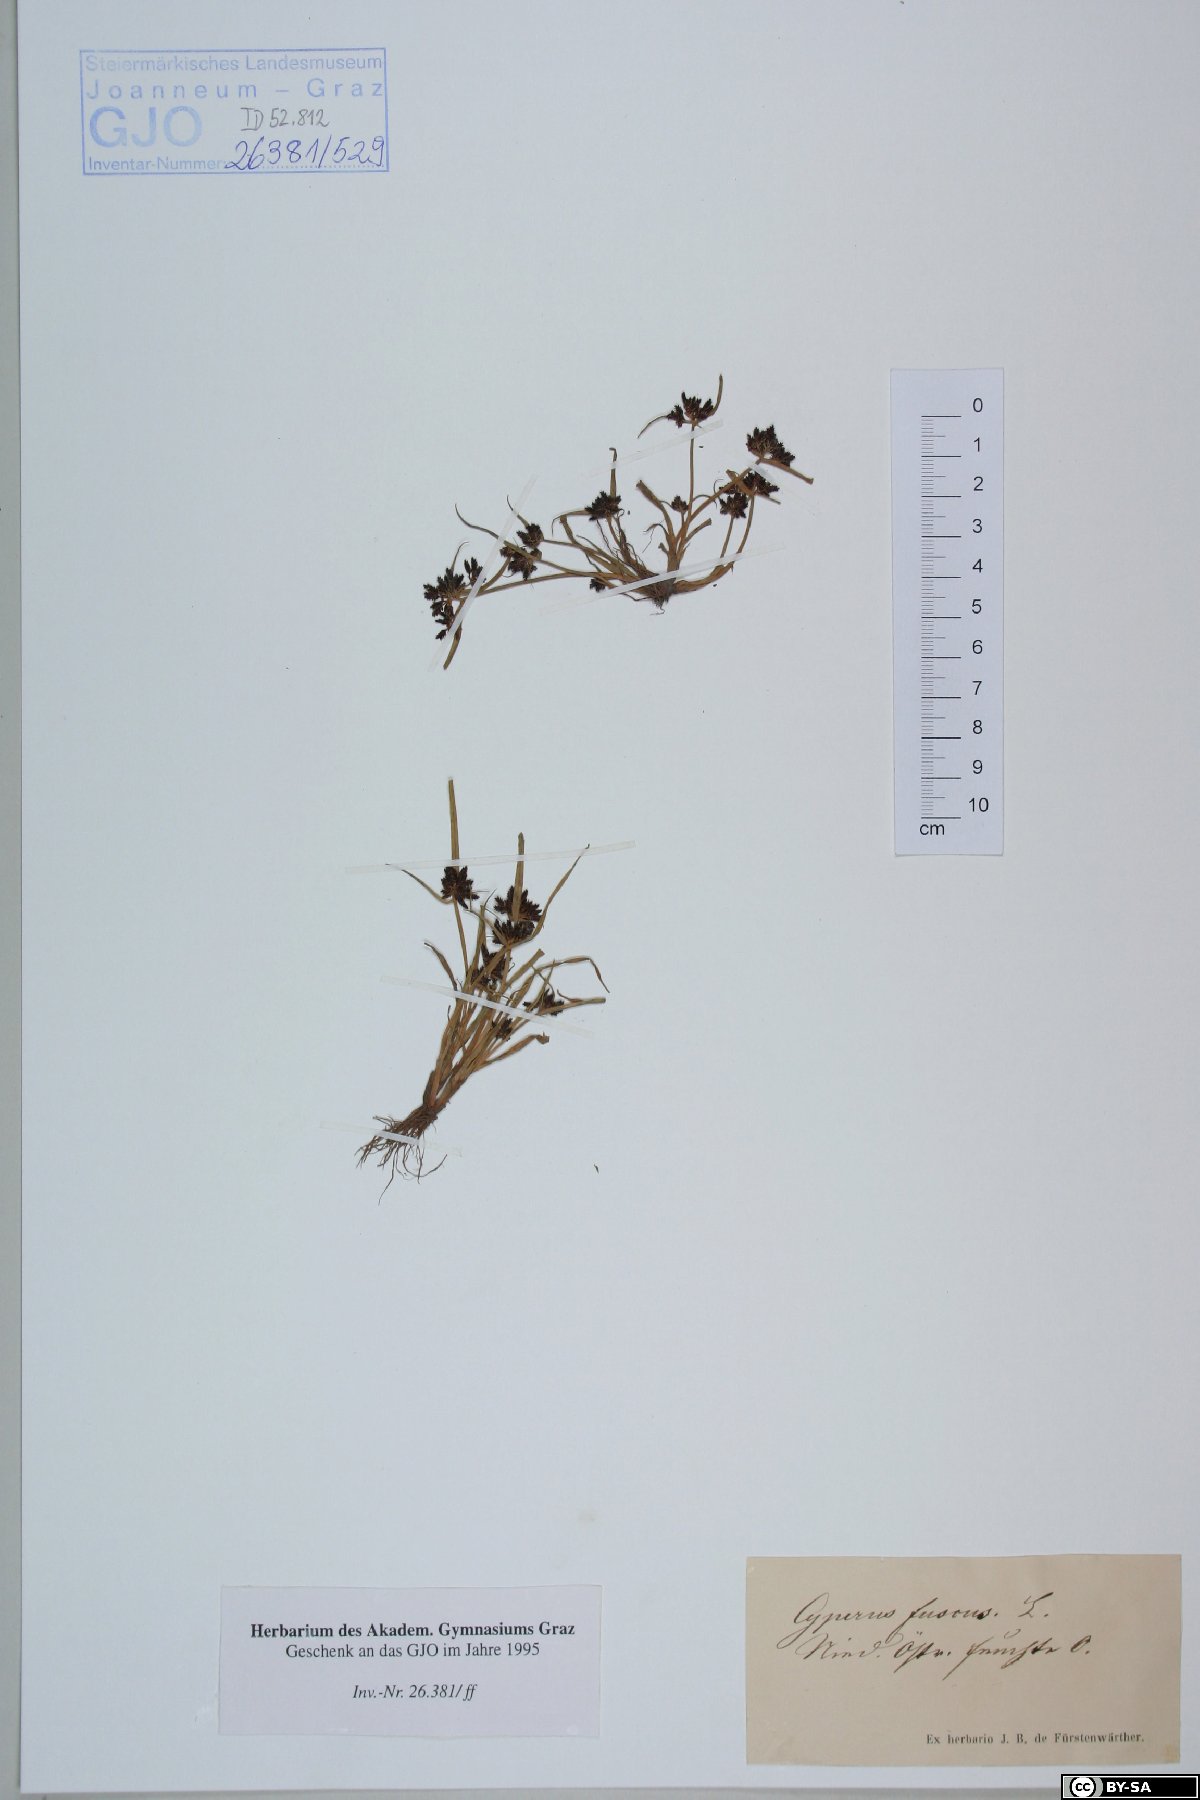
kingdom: Plantae
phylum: Tracheophyta
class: Liliopsida
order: Poales
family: Cyperaceae
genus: Cyperus
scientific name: Cyperus fuscus
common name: Brown galingale
